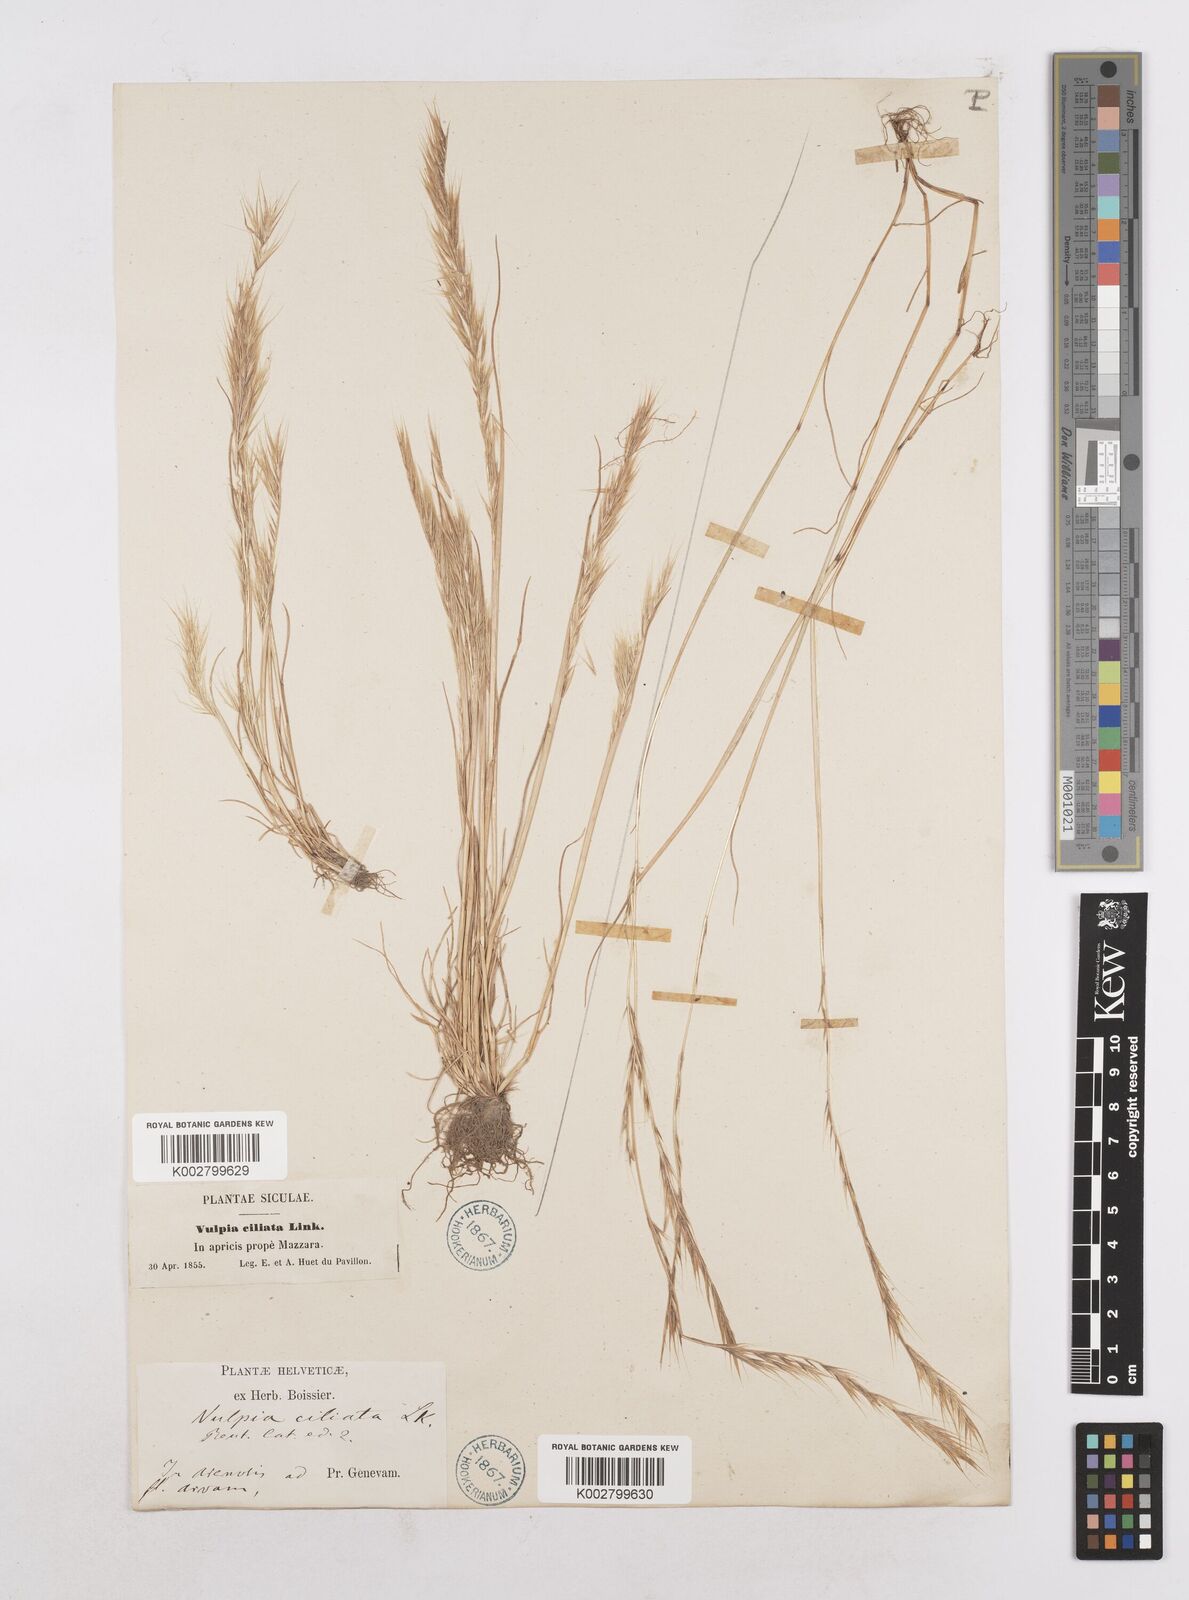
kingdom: Plantae
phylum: Tracheophyta
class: Liliopsida
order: Poales
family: Poaceae
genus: Festuca
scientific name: Festuca
